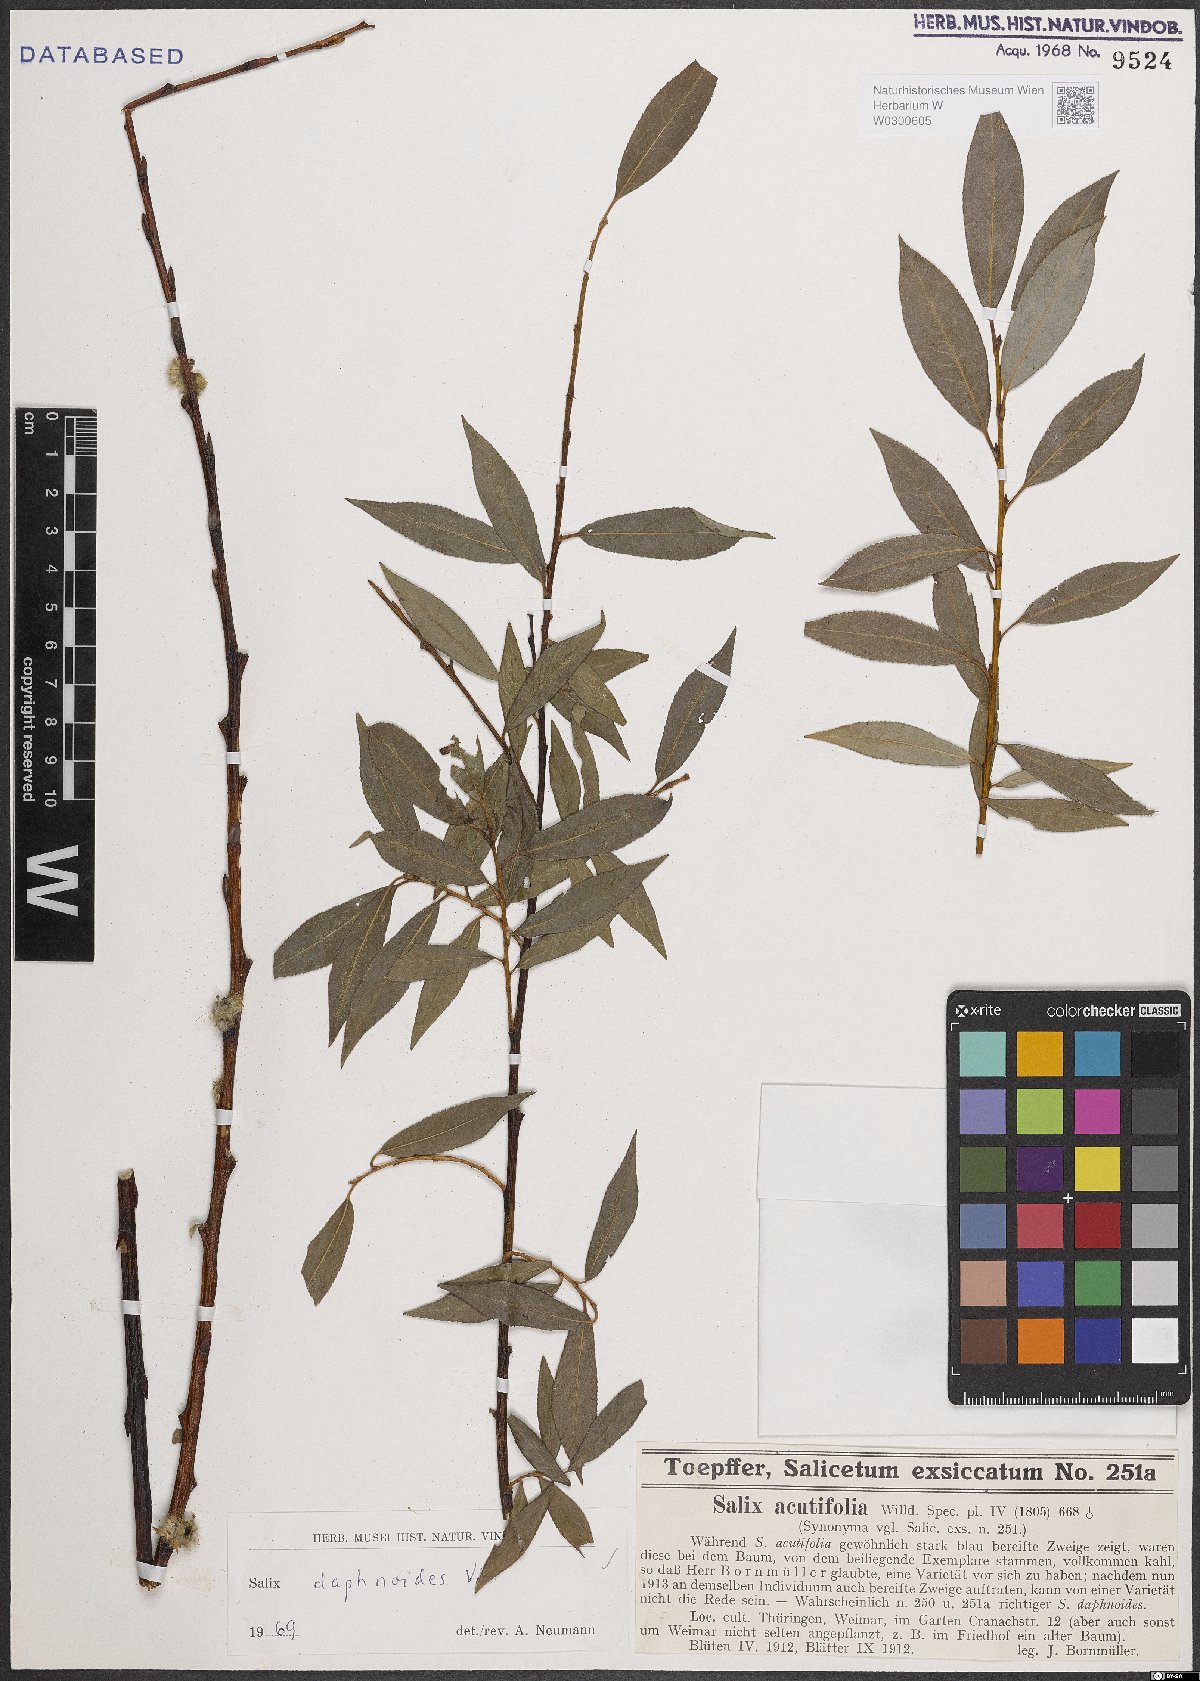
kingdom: Plantae
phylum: Tracheophyta
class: Magnoliopsida
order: Malpighiales
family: Salicaceae
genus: Salix
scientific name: Salix daphnoides
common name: European violet-willow
